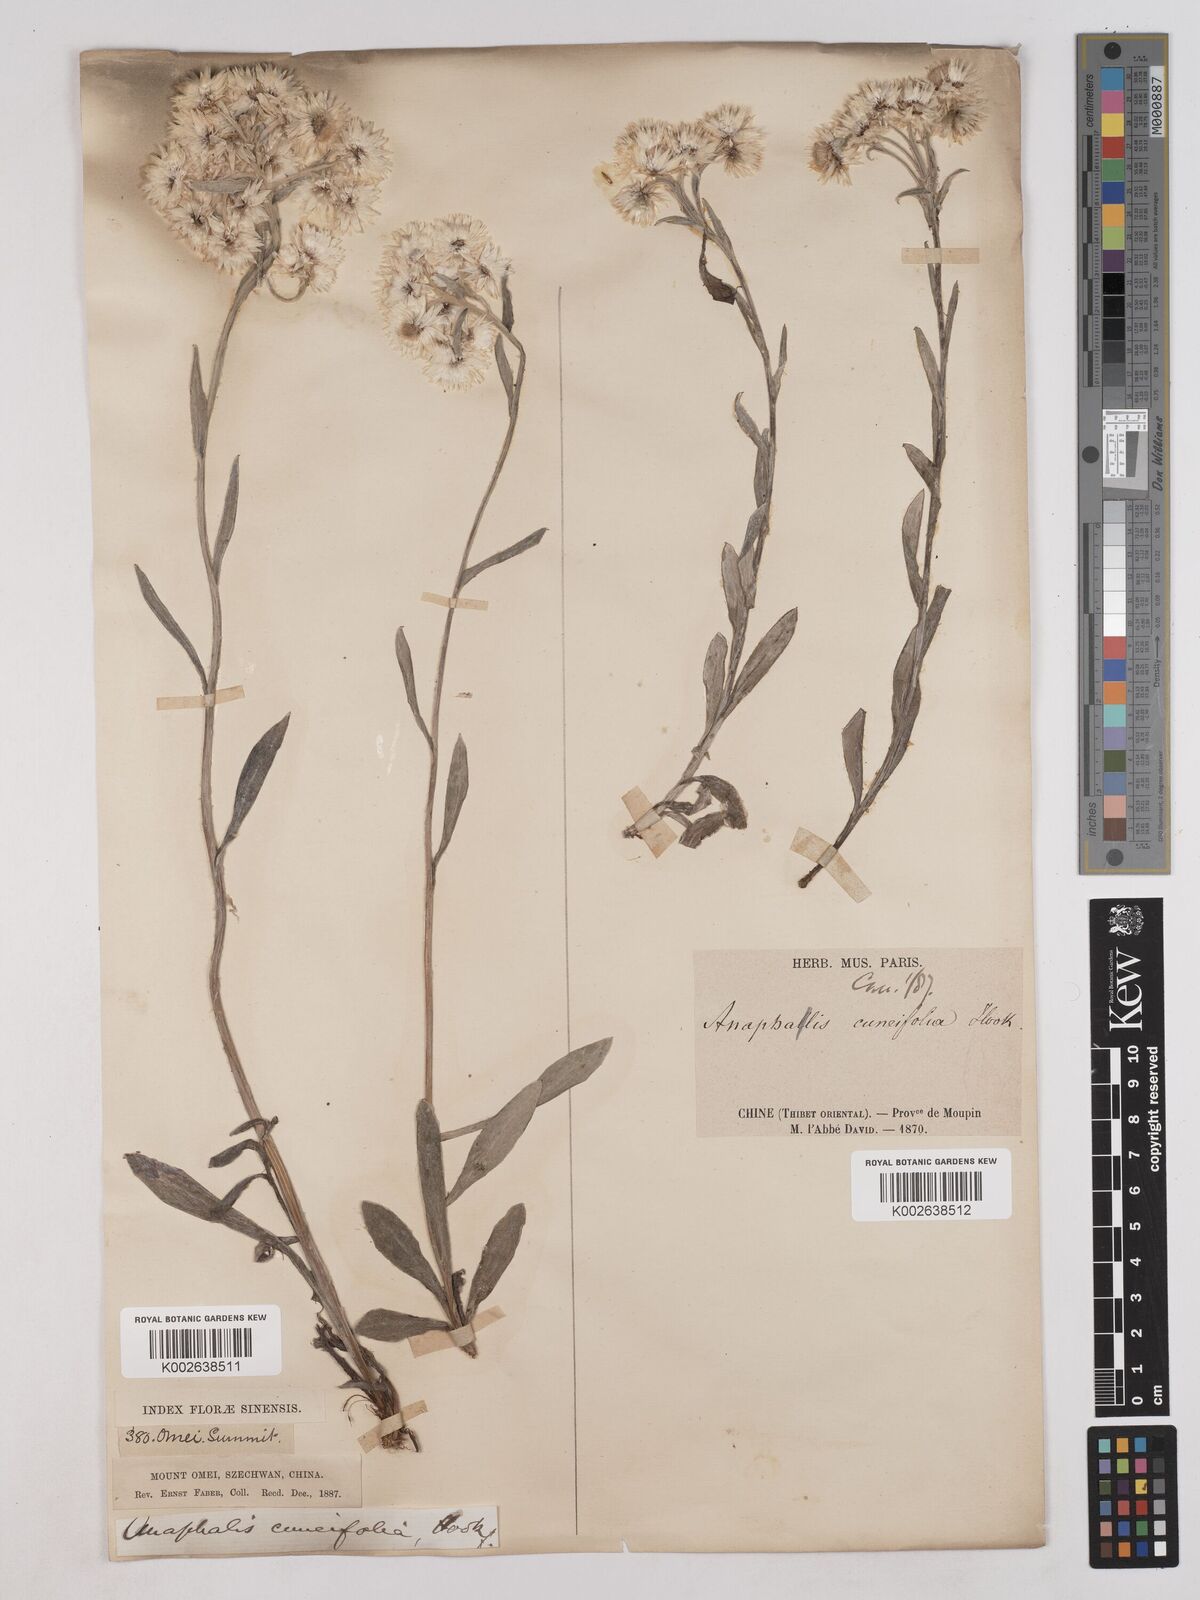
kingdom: Plantae
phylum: Tracheophyta
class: Magnoliopsida
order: Asterales
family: Asteraceae
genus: Anaphalis
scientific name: Anaphalis nepalensis
